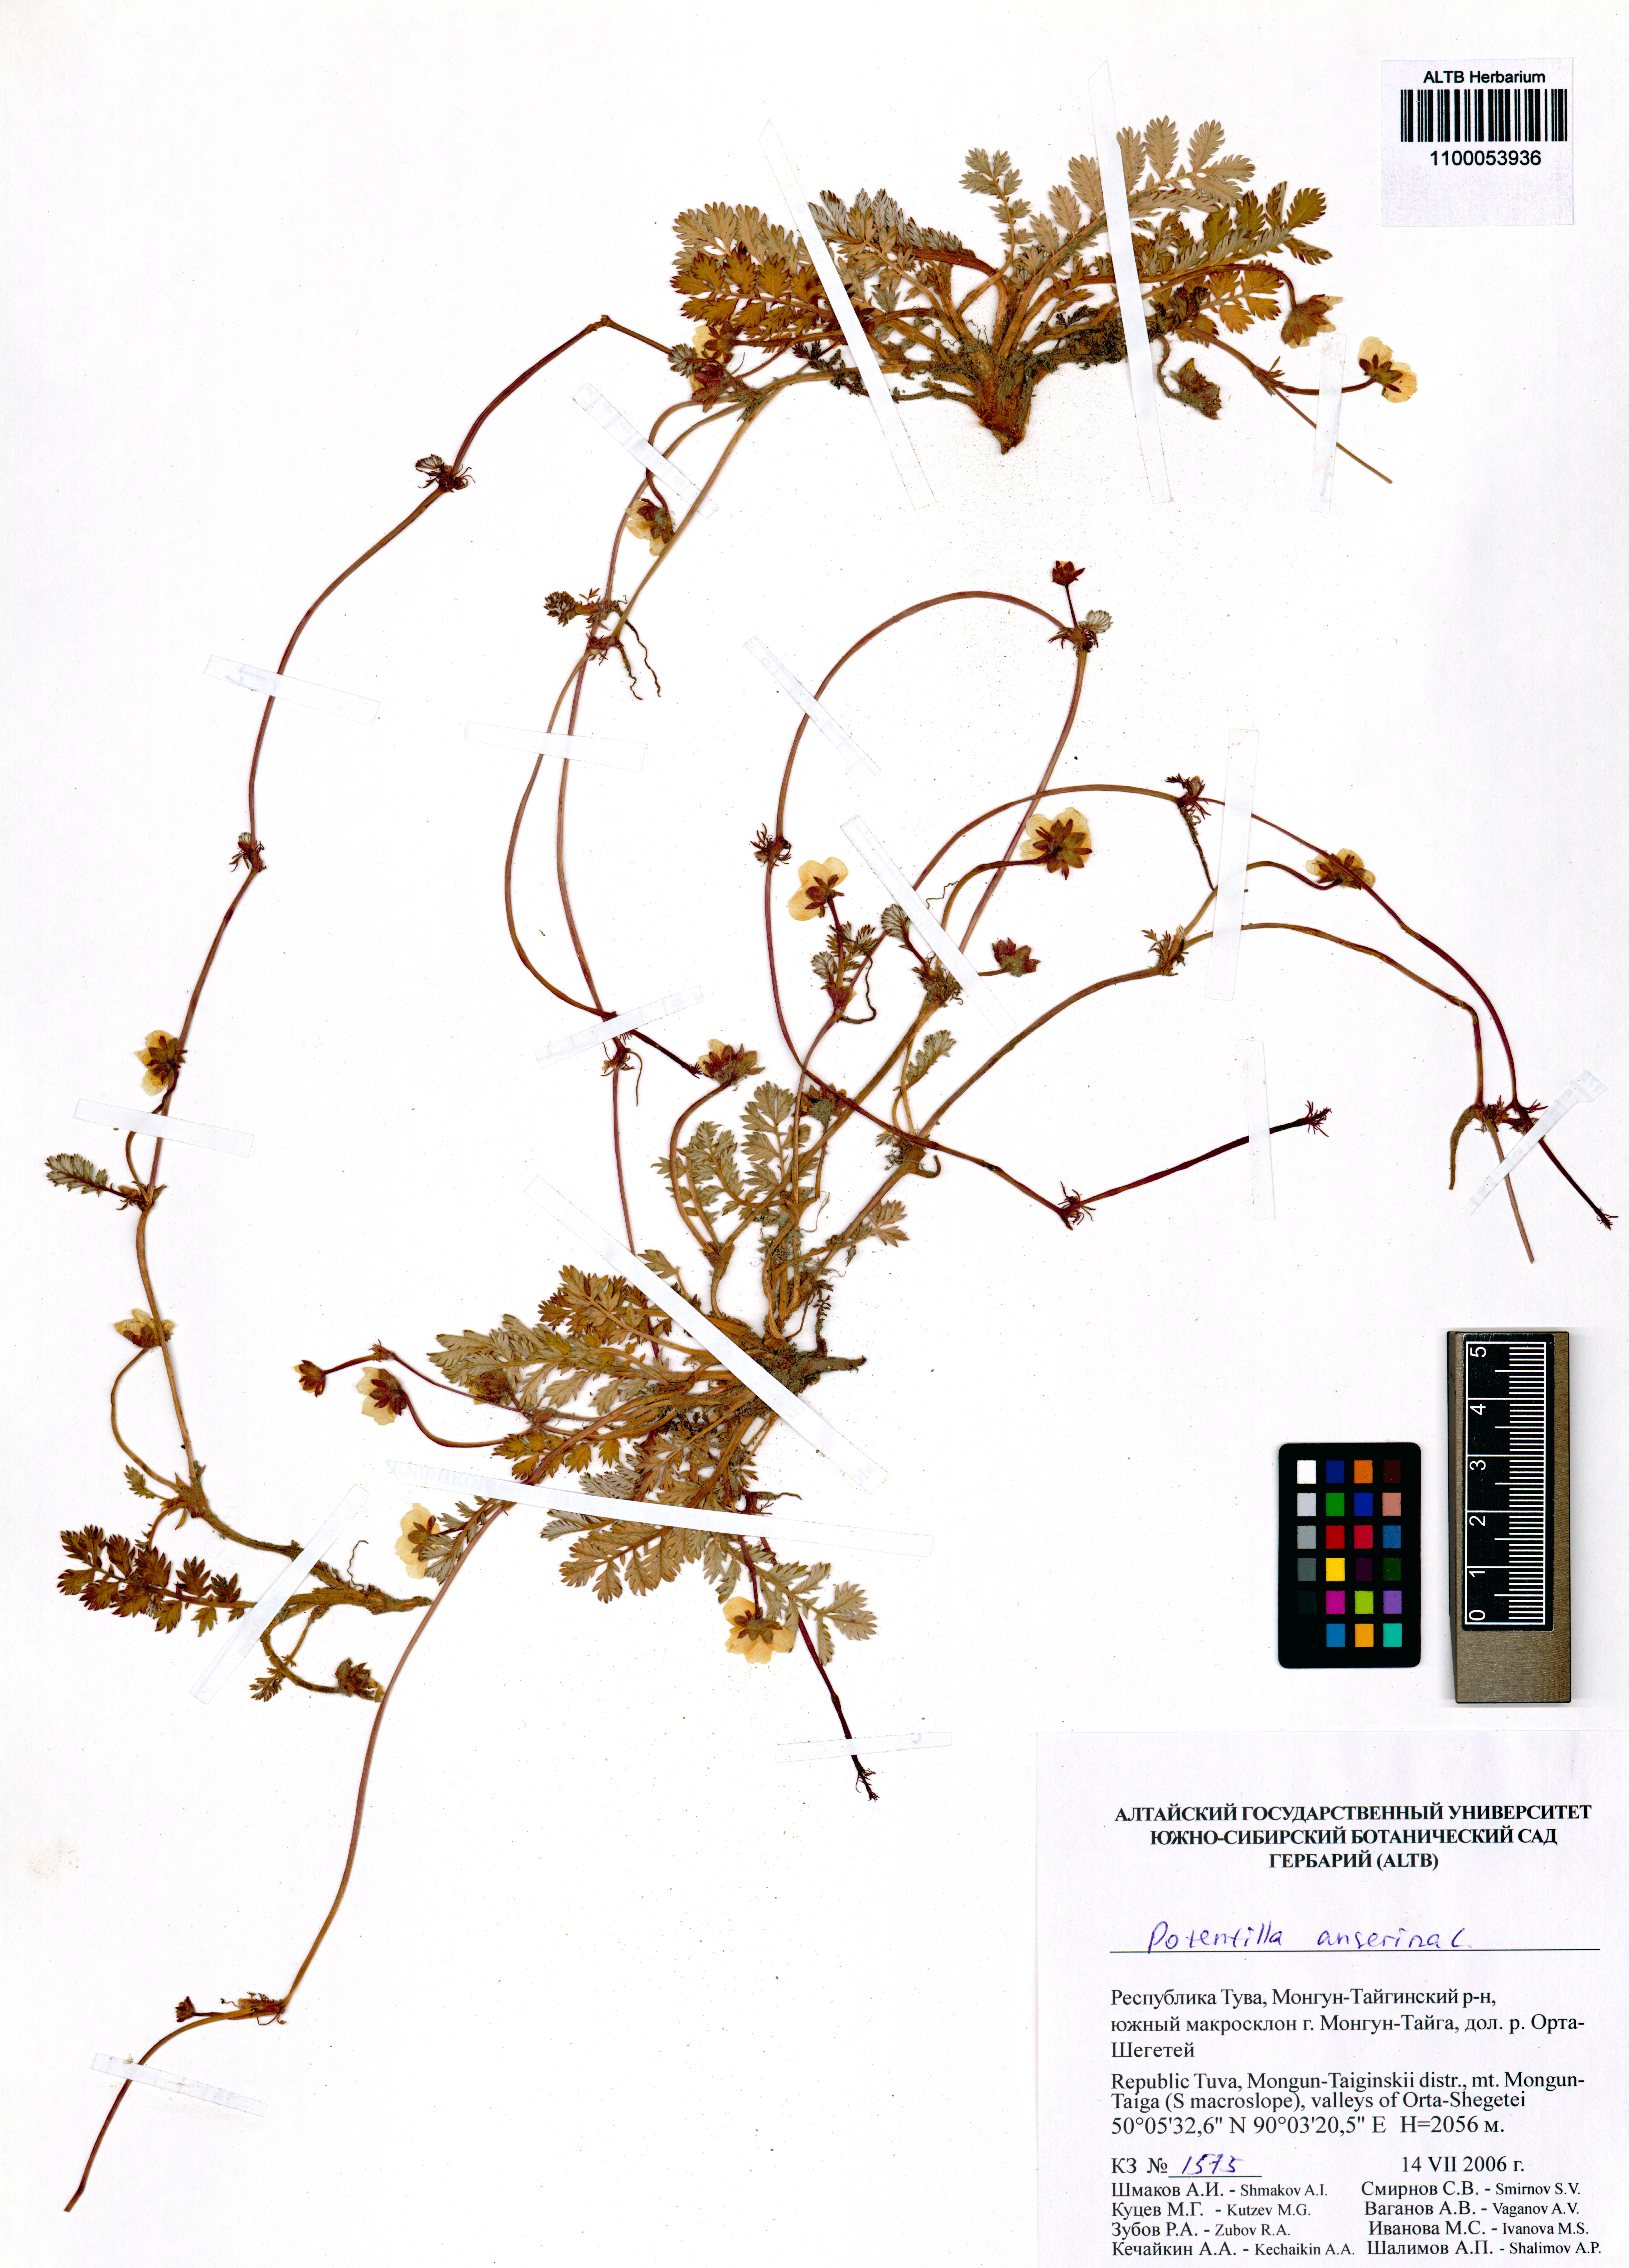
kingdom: Plantae
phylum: Tracheophyta
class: Magnoliopsida
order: Rosales
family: Rosaceae
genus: Argentina
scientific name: Argentina anserina
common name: Common silverweed
